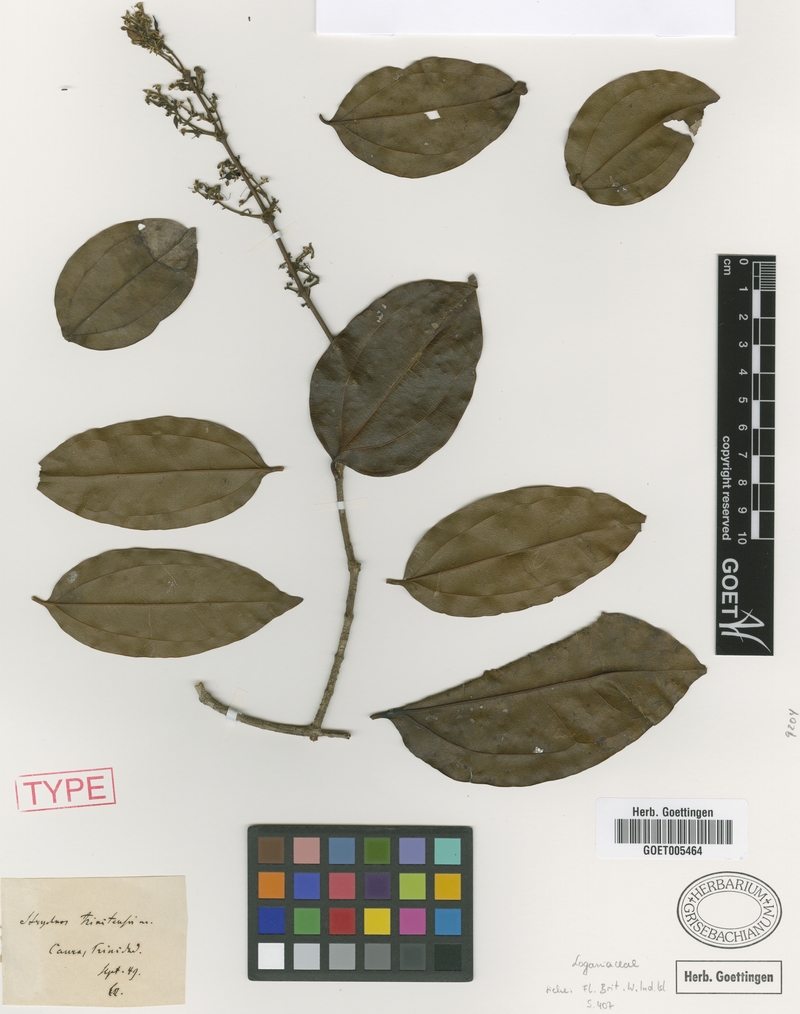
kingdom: Plantae
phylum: Tracheophyta
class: Magnoliopsida
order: Gentianales
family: Loganiaceae
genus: Strychnos
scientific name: Strychnos bredemeyeri
